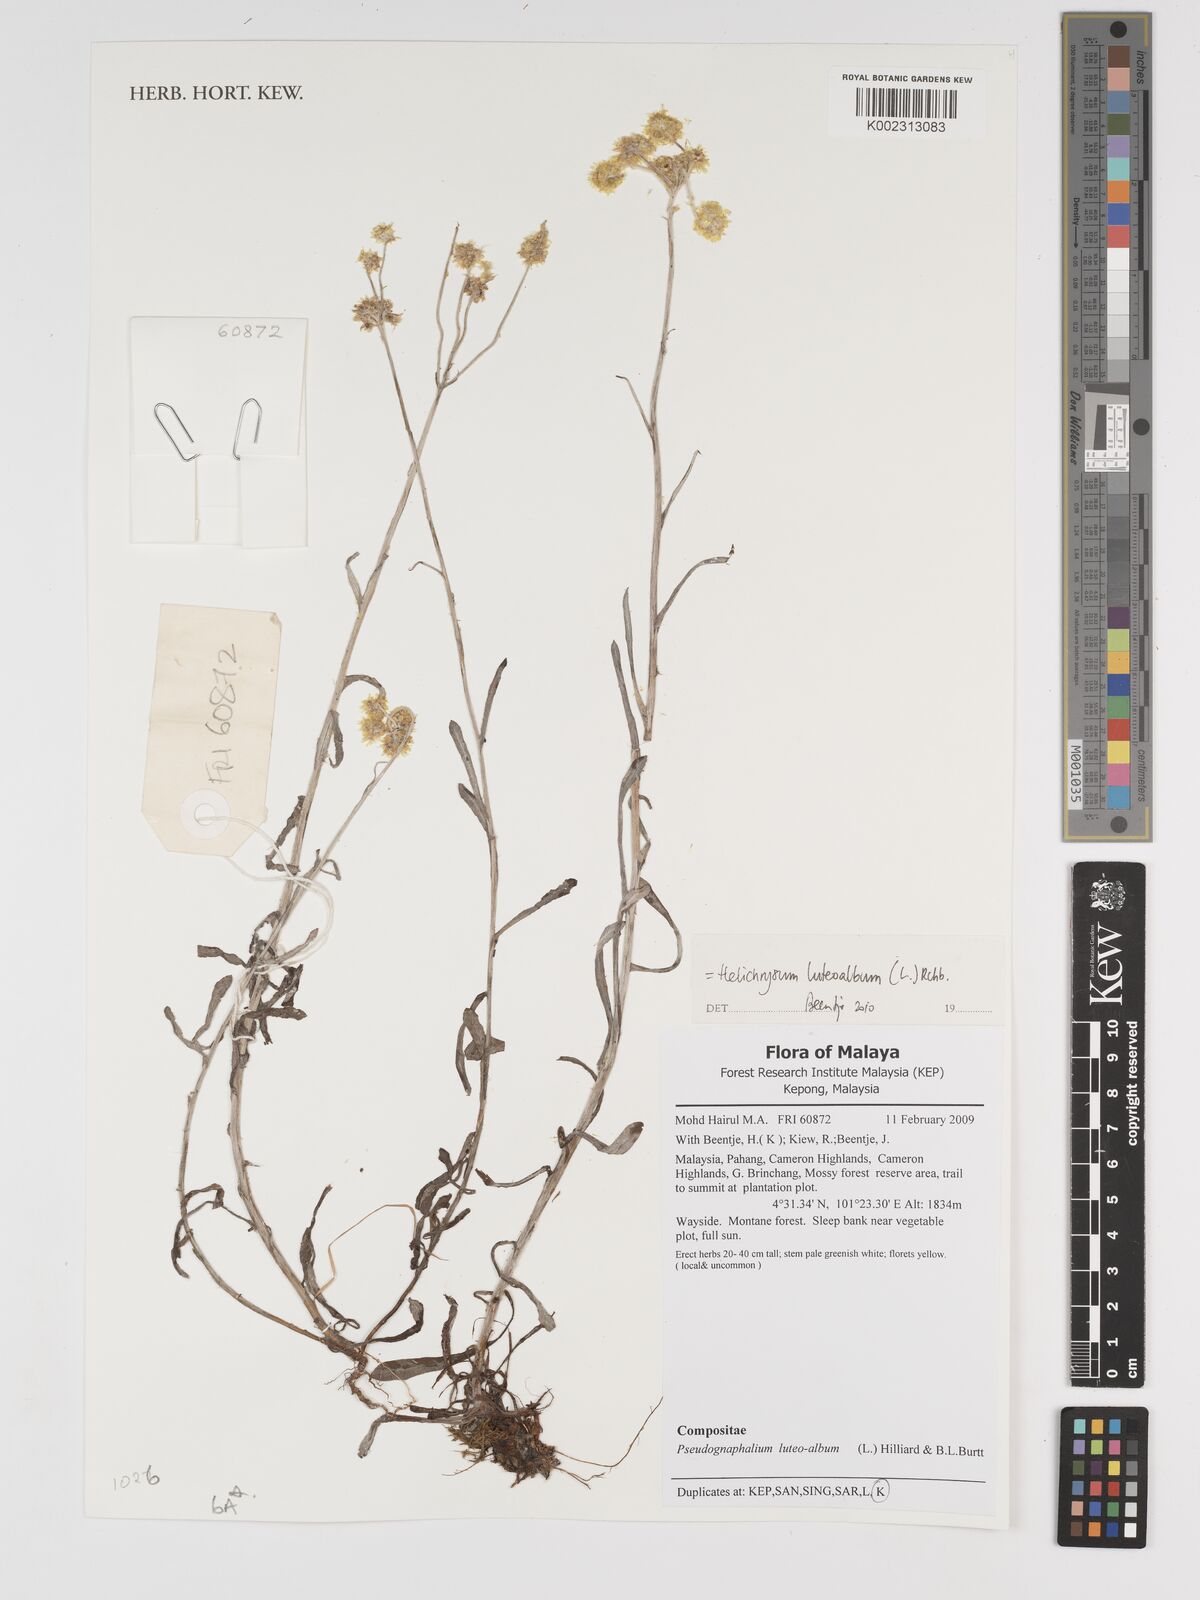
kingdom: Plantae
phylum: Tracheophyta
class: Magnoliopsida
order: Asterales
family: Asteraceae
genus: Helichrysum
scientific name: Helichrysum luteoalbum
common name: Daisy
